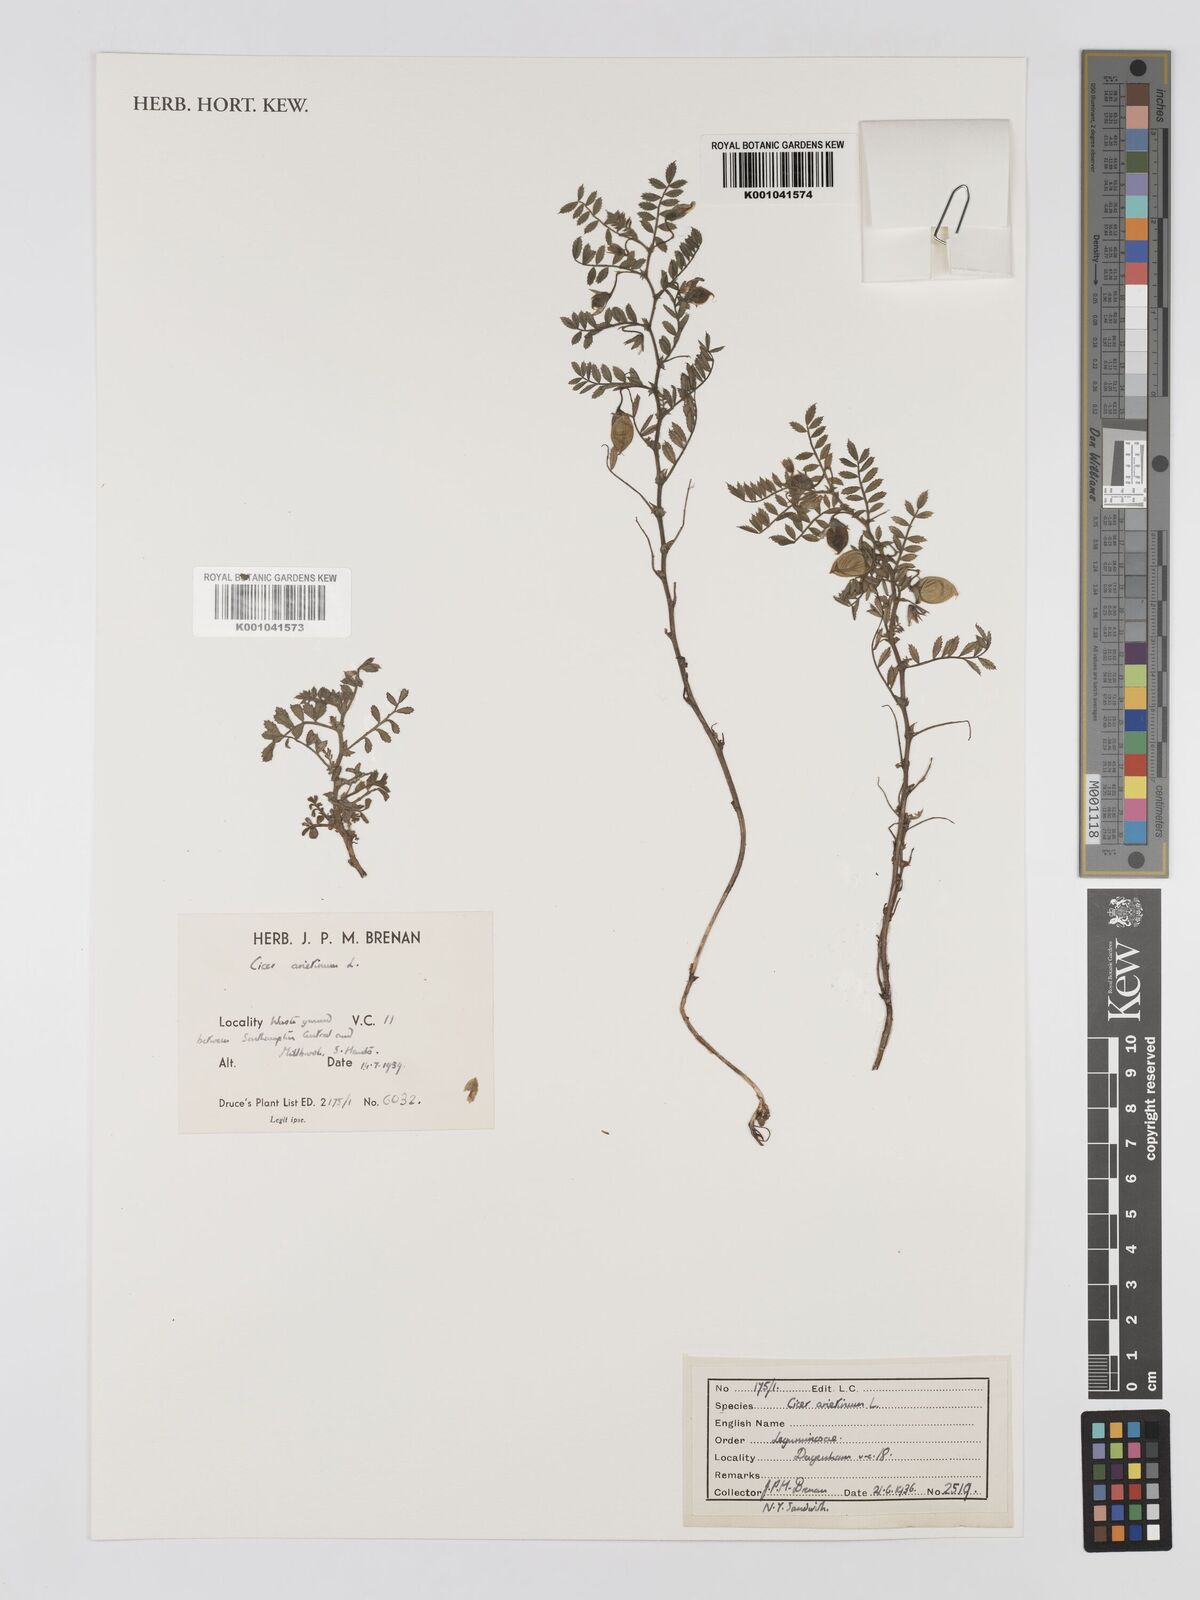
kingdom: Plantae
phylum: Tracheophyta
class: Magnoliopsida
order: Fabales
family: Fabaceae
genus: Cicer
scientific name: Cicer arietinum
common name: Chick pea
